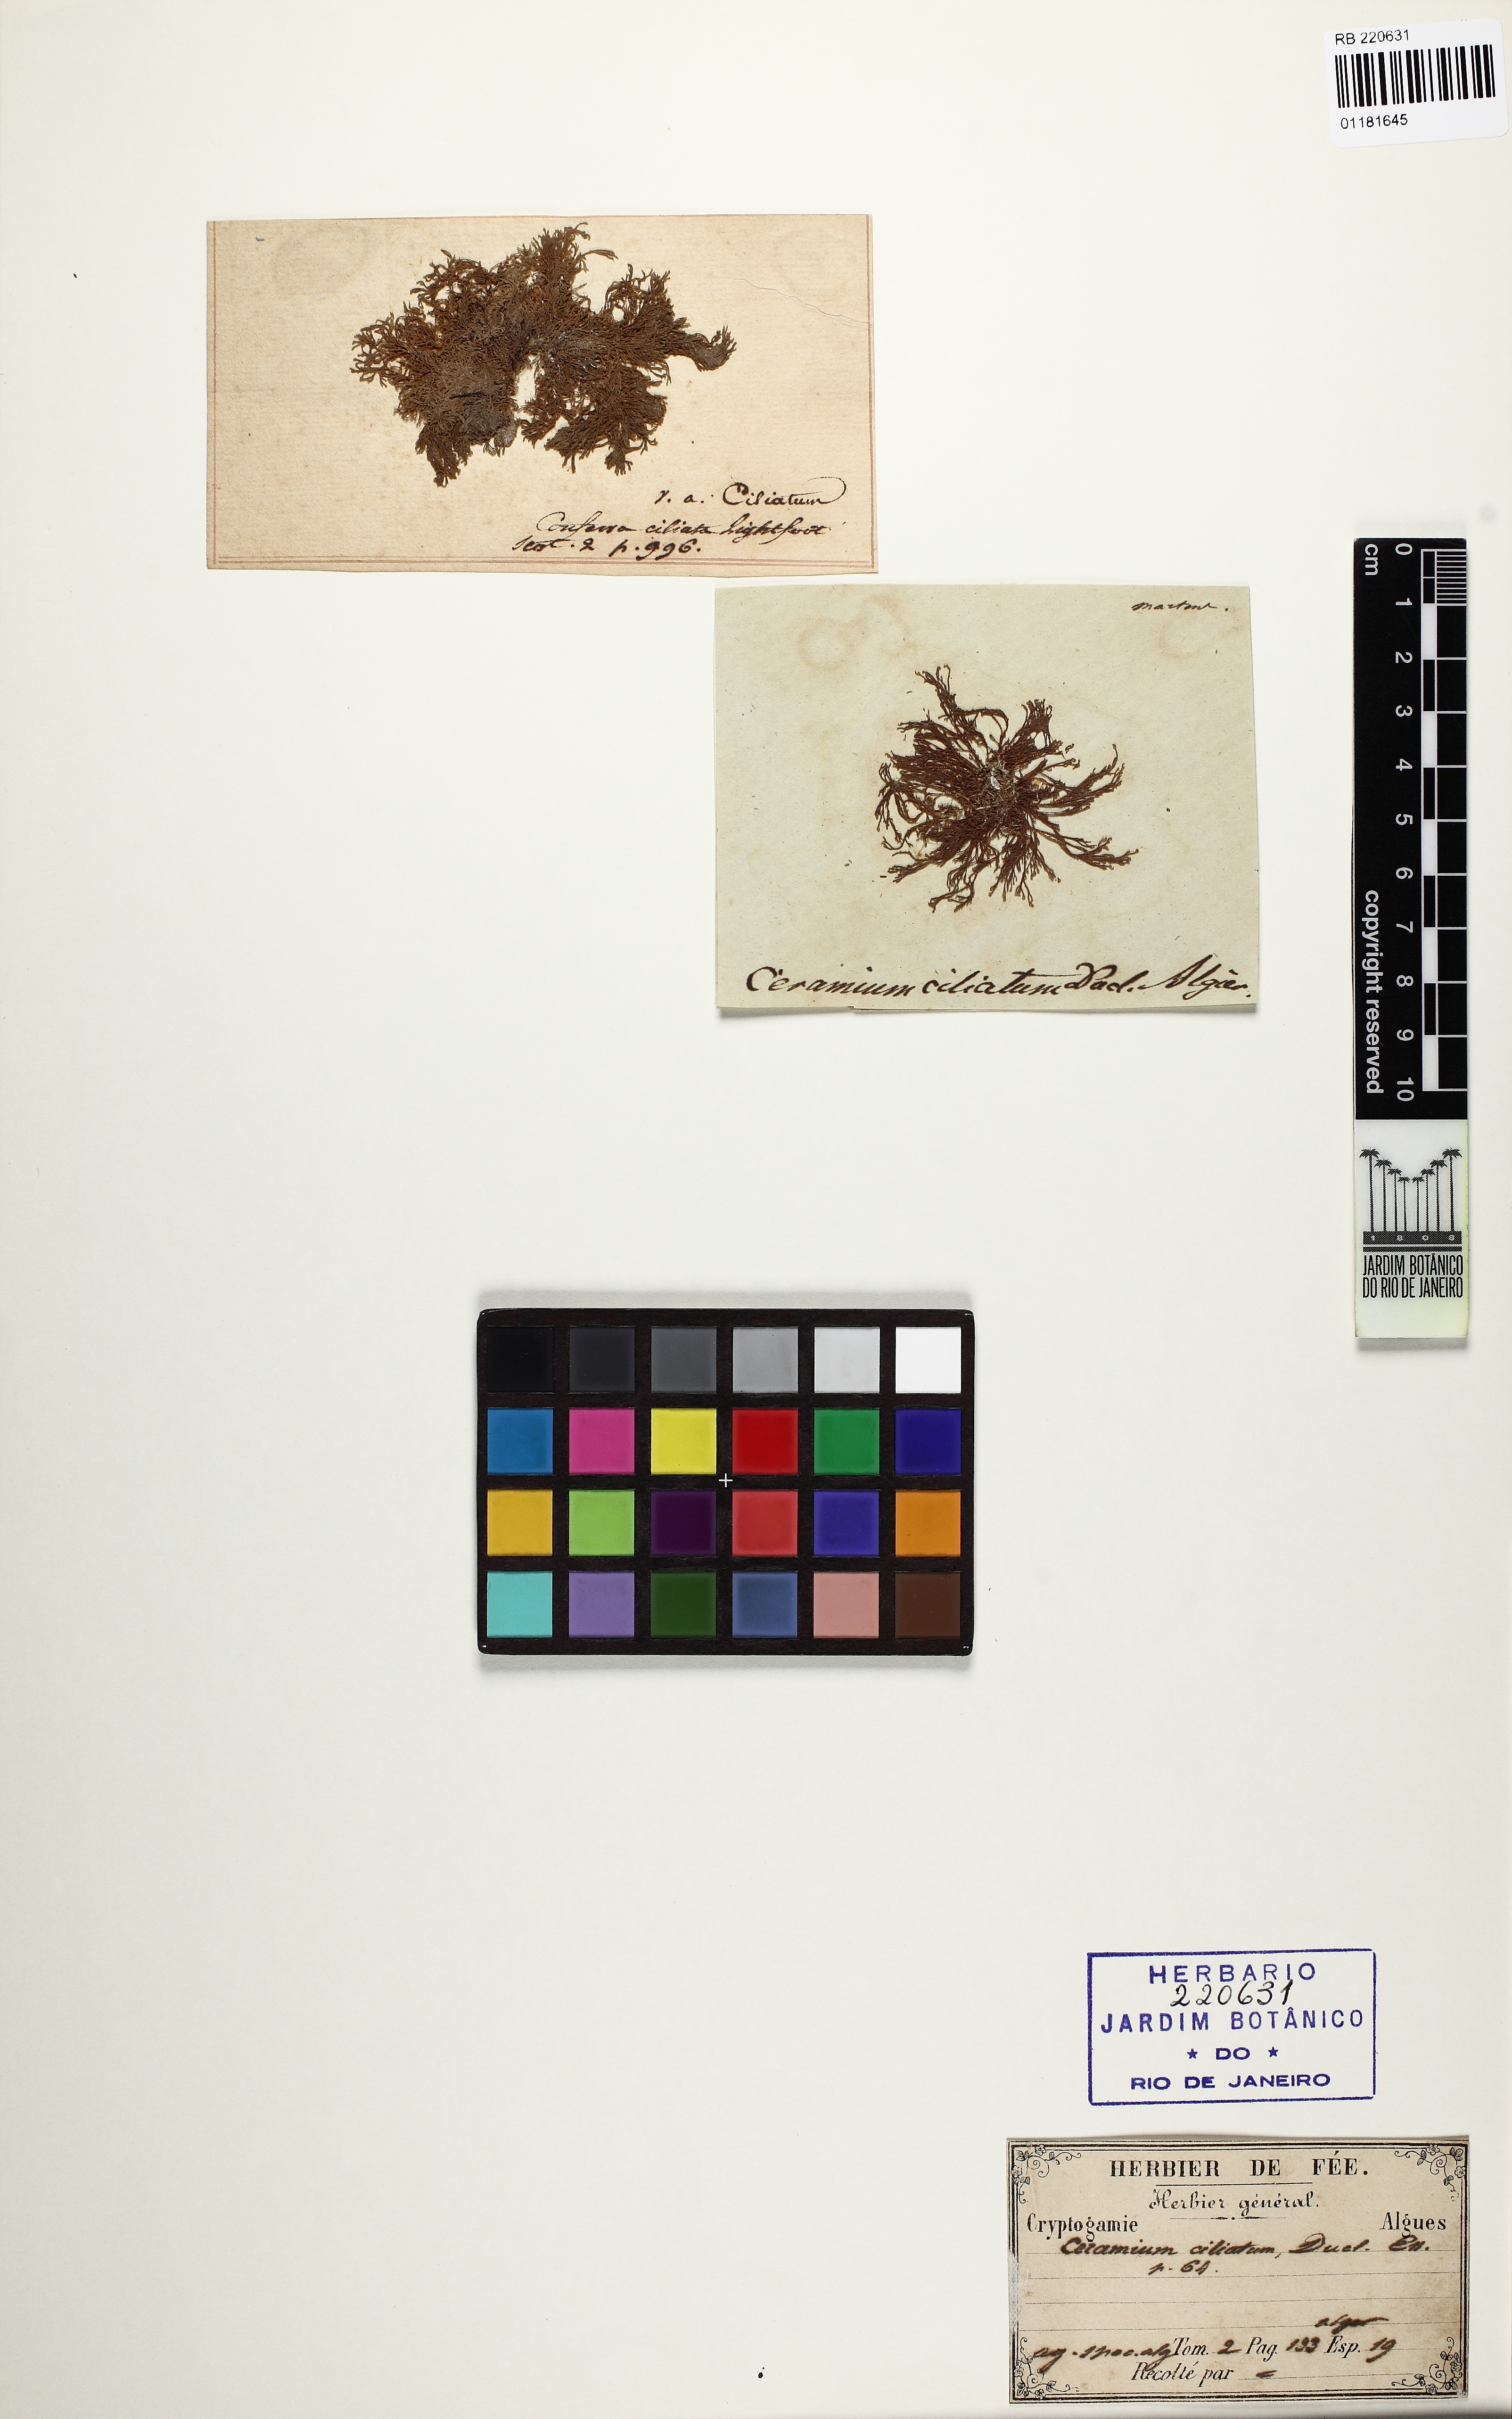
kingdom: Plantae
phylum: Rhodophyta
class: Florideophyceae
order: Ceramiales
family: Ceramiaceae
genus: Ceramium
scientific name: Ceramium shuttleworthianum
